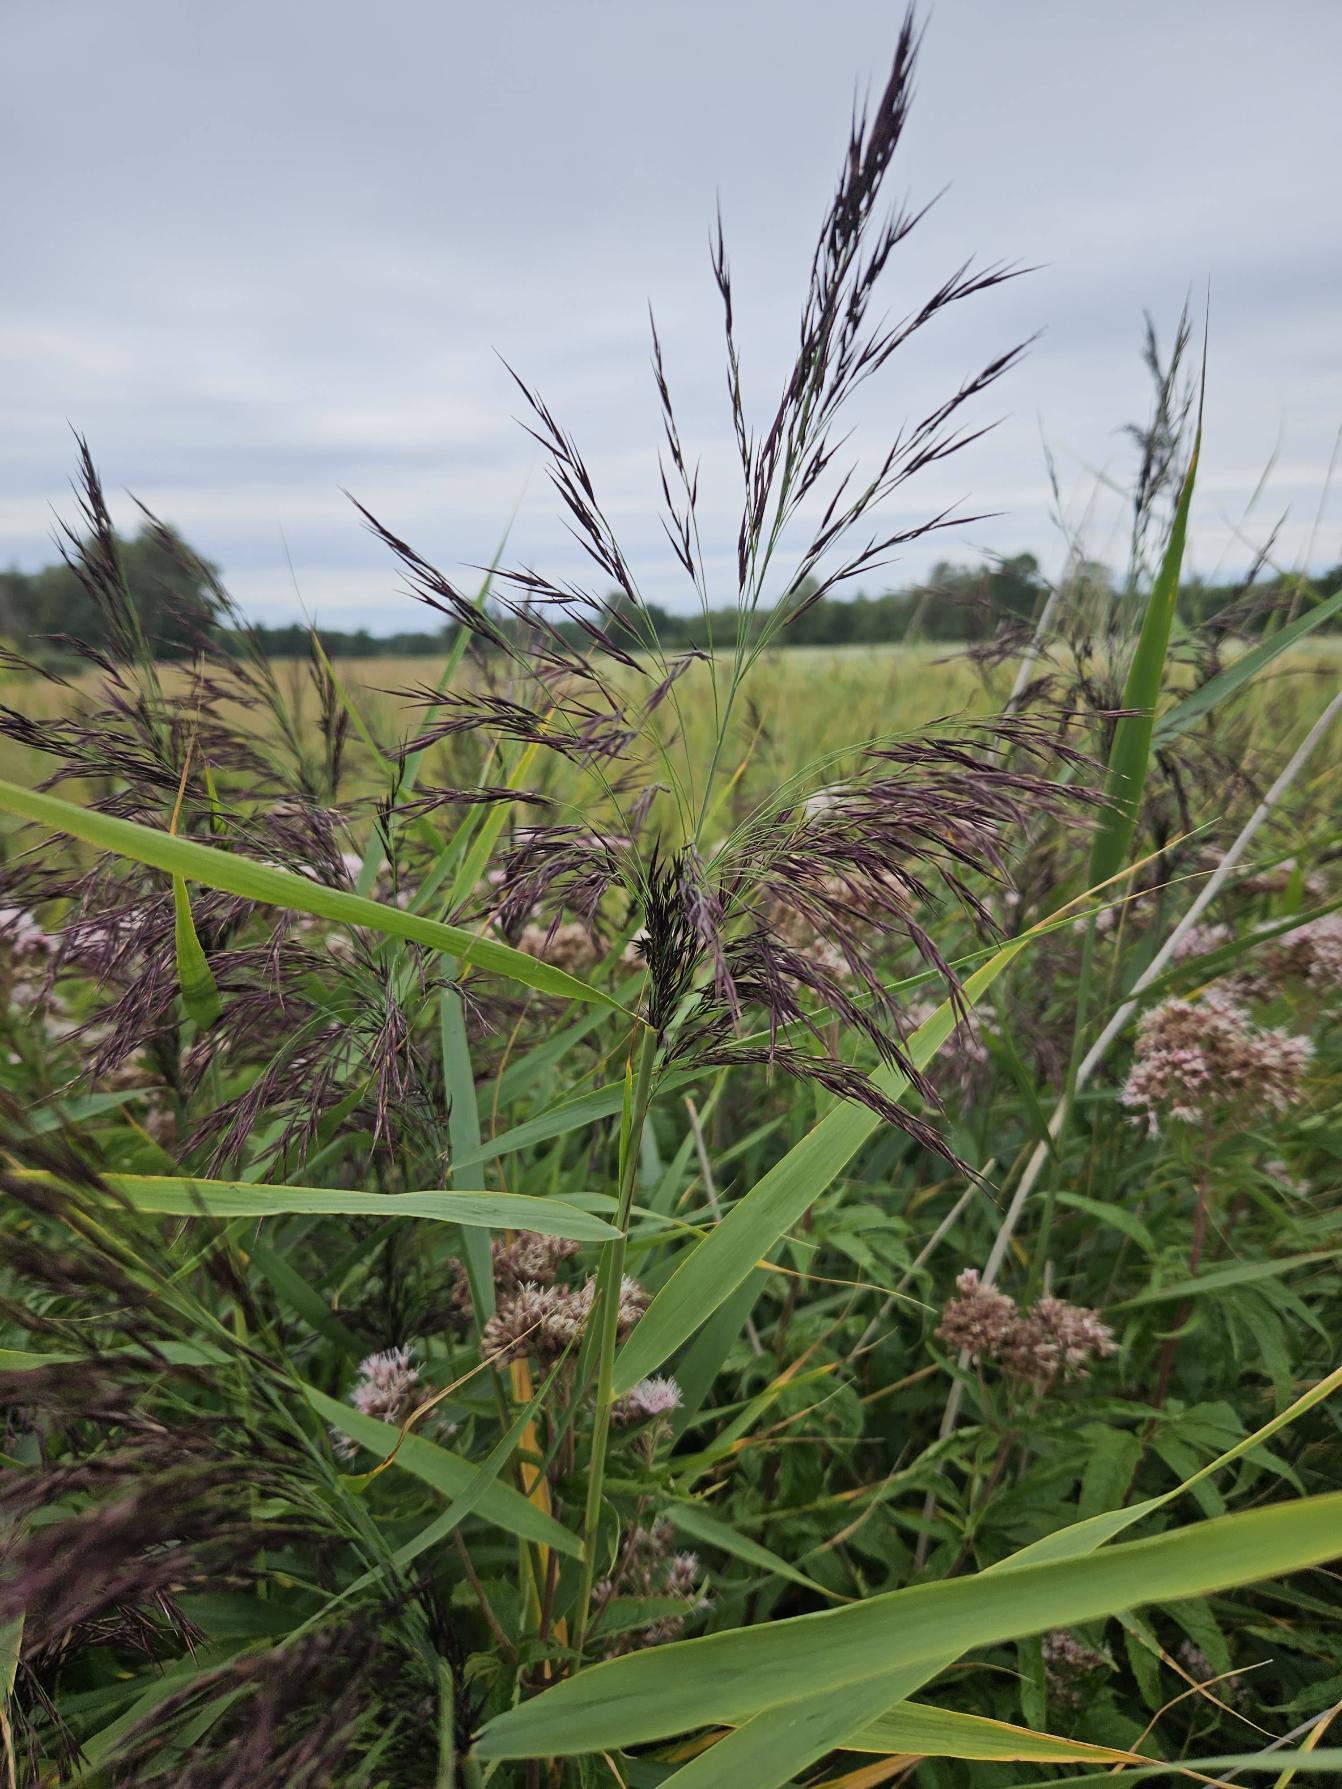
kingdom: Plantae
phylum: Tracheophyta
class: Liliopsida
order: Poales
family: Poaceae
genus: Phragmites
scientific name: Phragmites australis
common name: Tagrør
